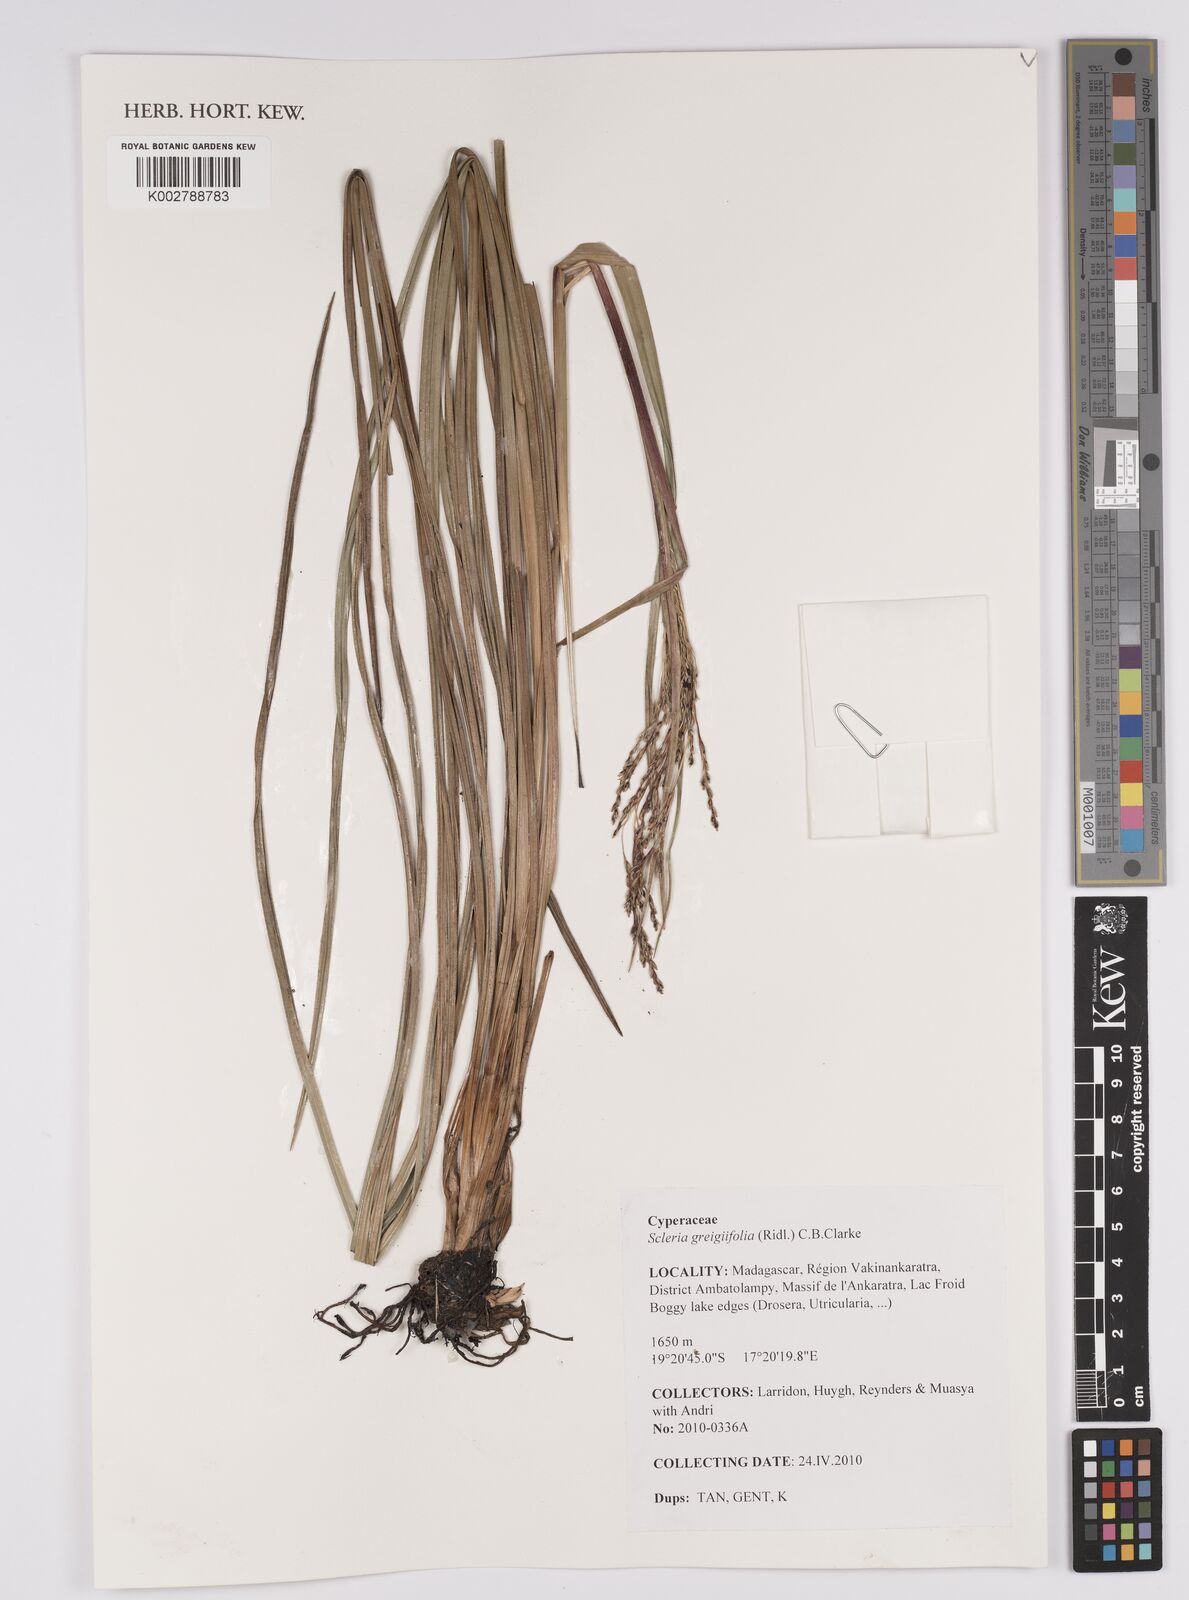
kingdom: Plantae
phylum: Tracheophyta
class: Liliopsida
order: Poales
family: Cyperaceae
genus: Scleria
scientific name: Scleria greigiifolia
